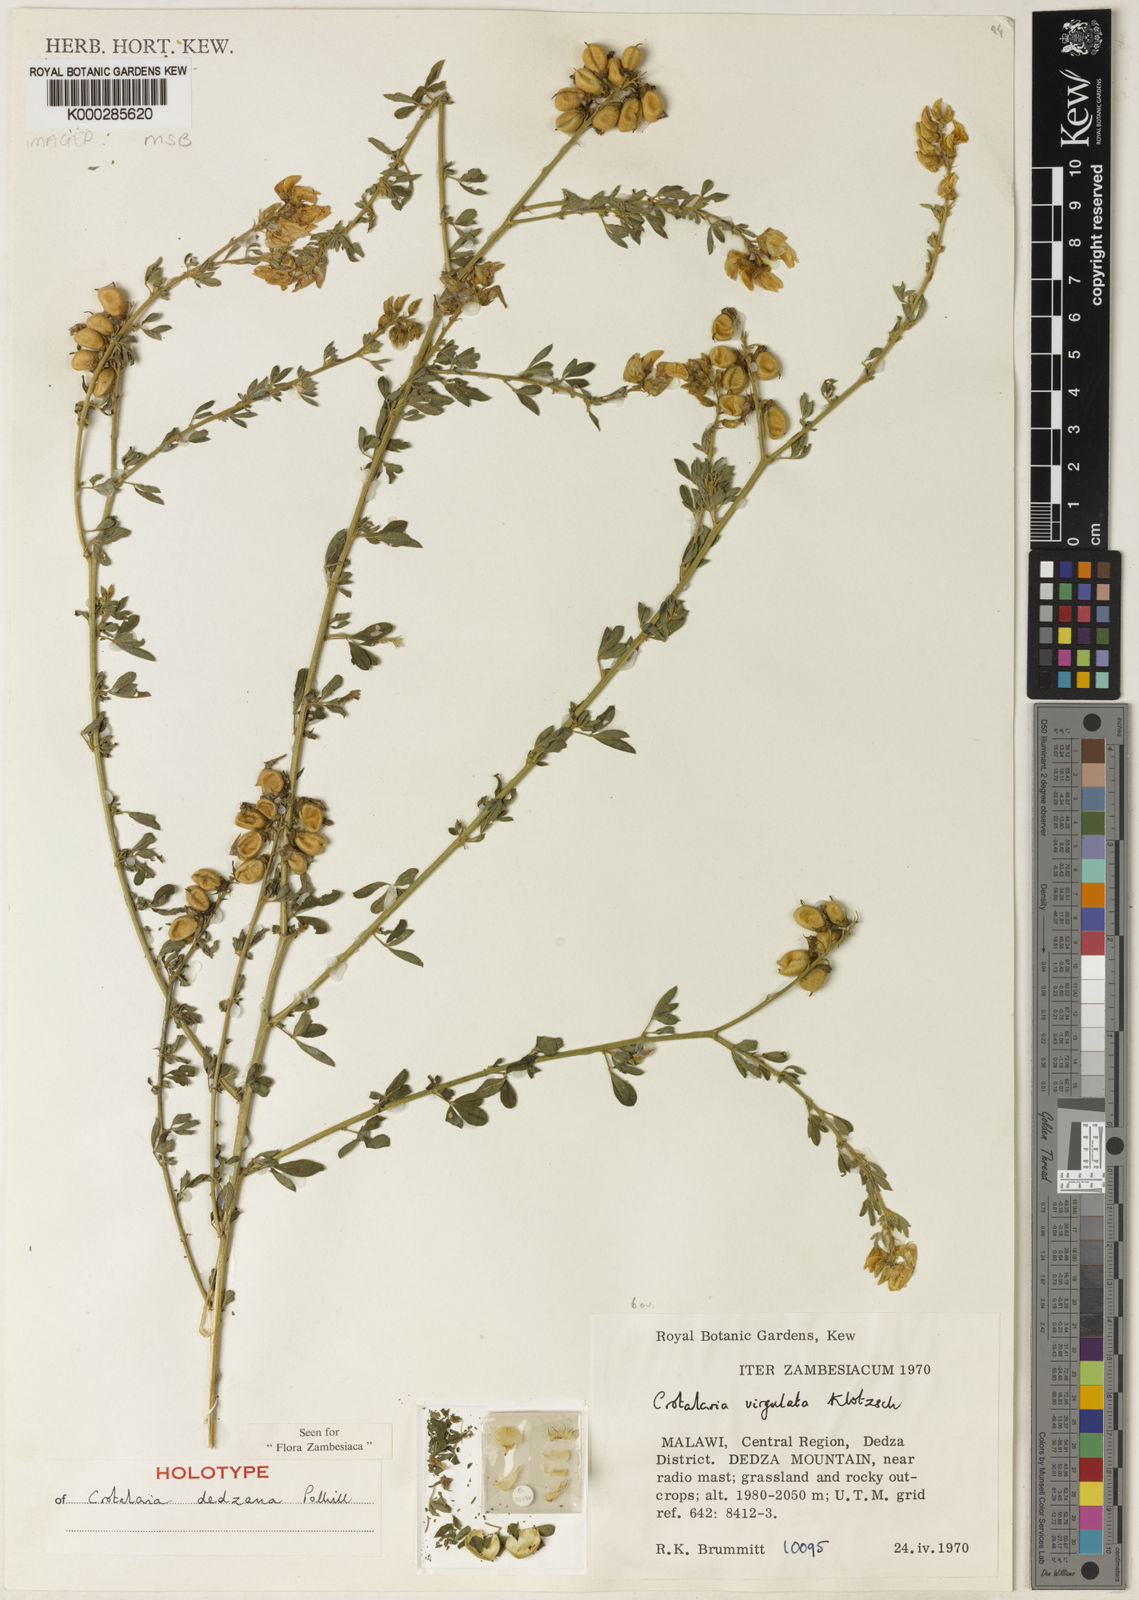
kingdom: Plantae
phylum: Tracheophyta
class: Magnoliopsida
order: Fabales
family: Fabaceae
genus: Crotalaria
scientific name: Crotalaria dedzana
